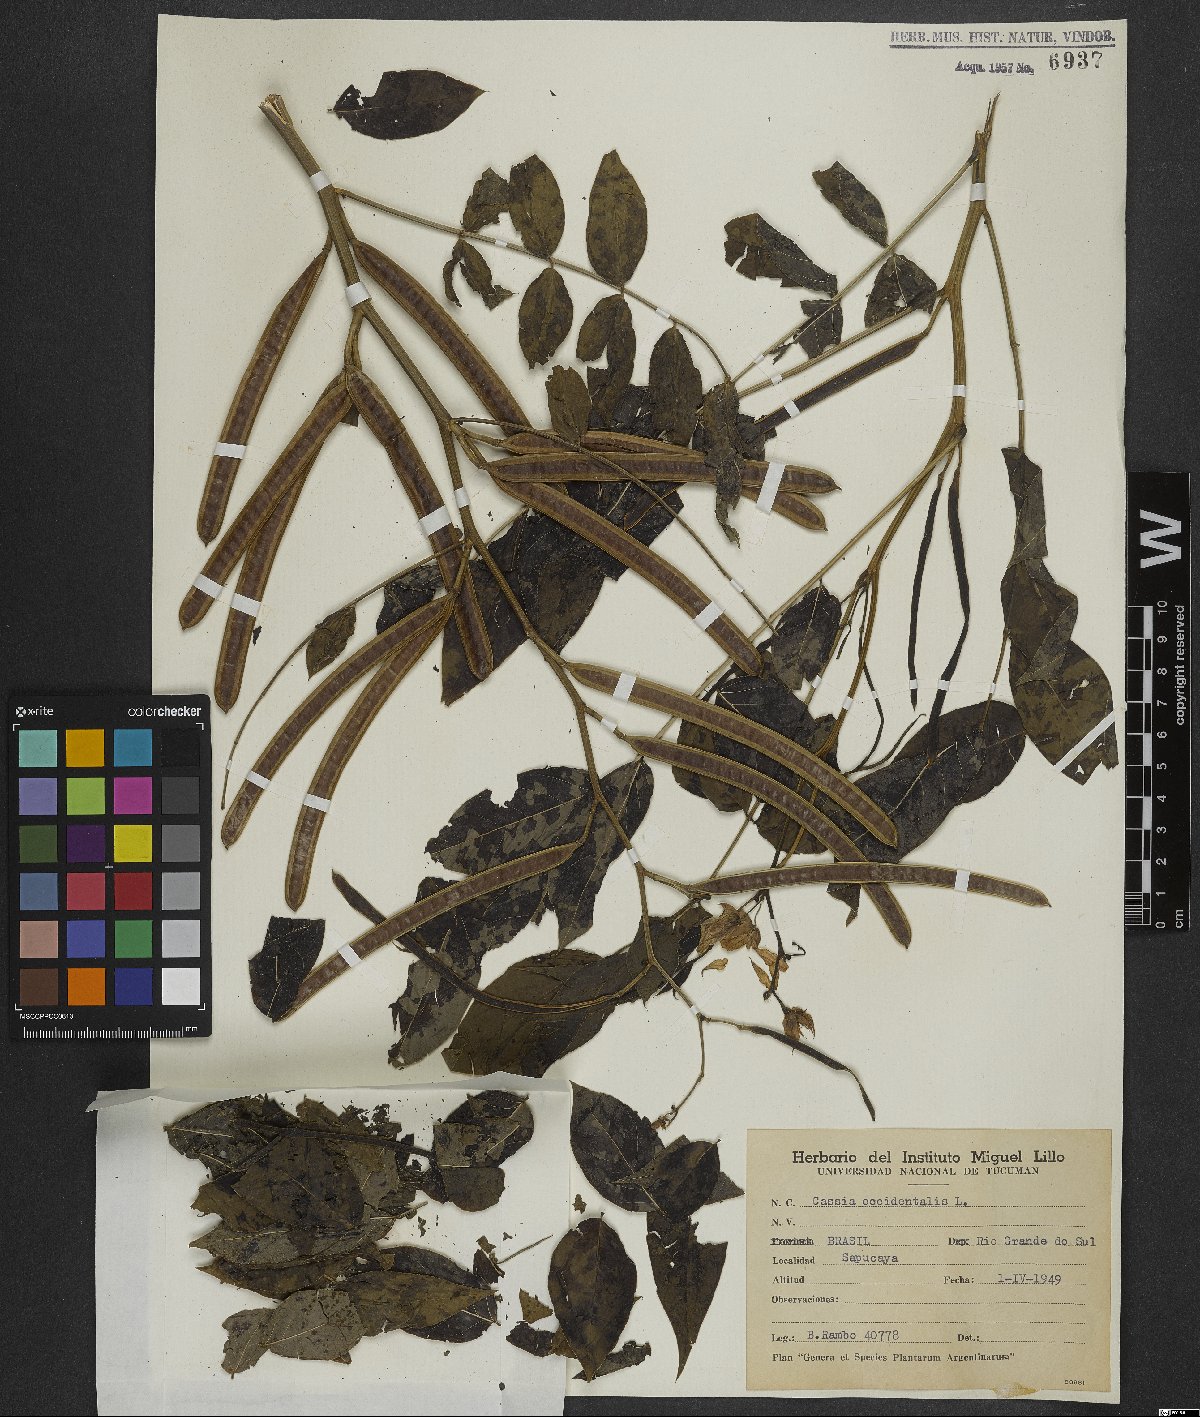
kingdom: Plantae
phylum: Tracheophyta
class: Magnoliopsida
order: Fabales
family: Fabaceae
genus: Senna
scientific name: Senna occidentalis
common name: Septicweed
